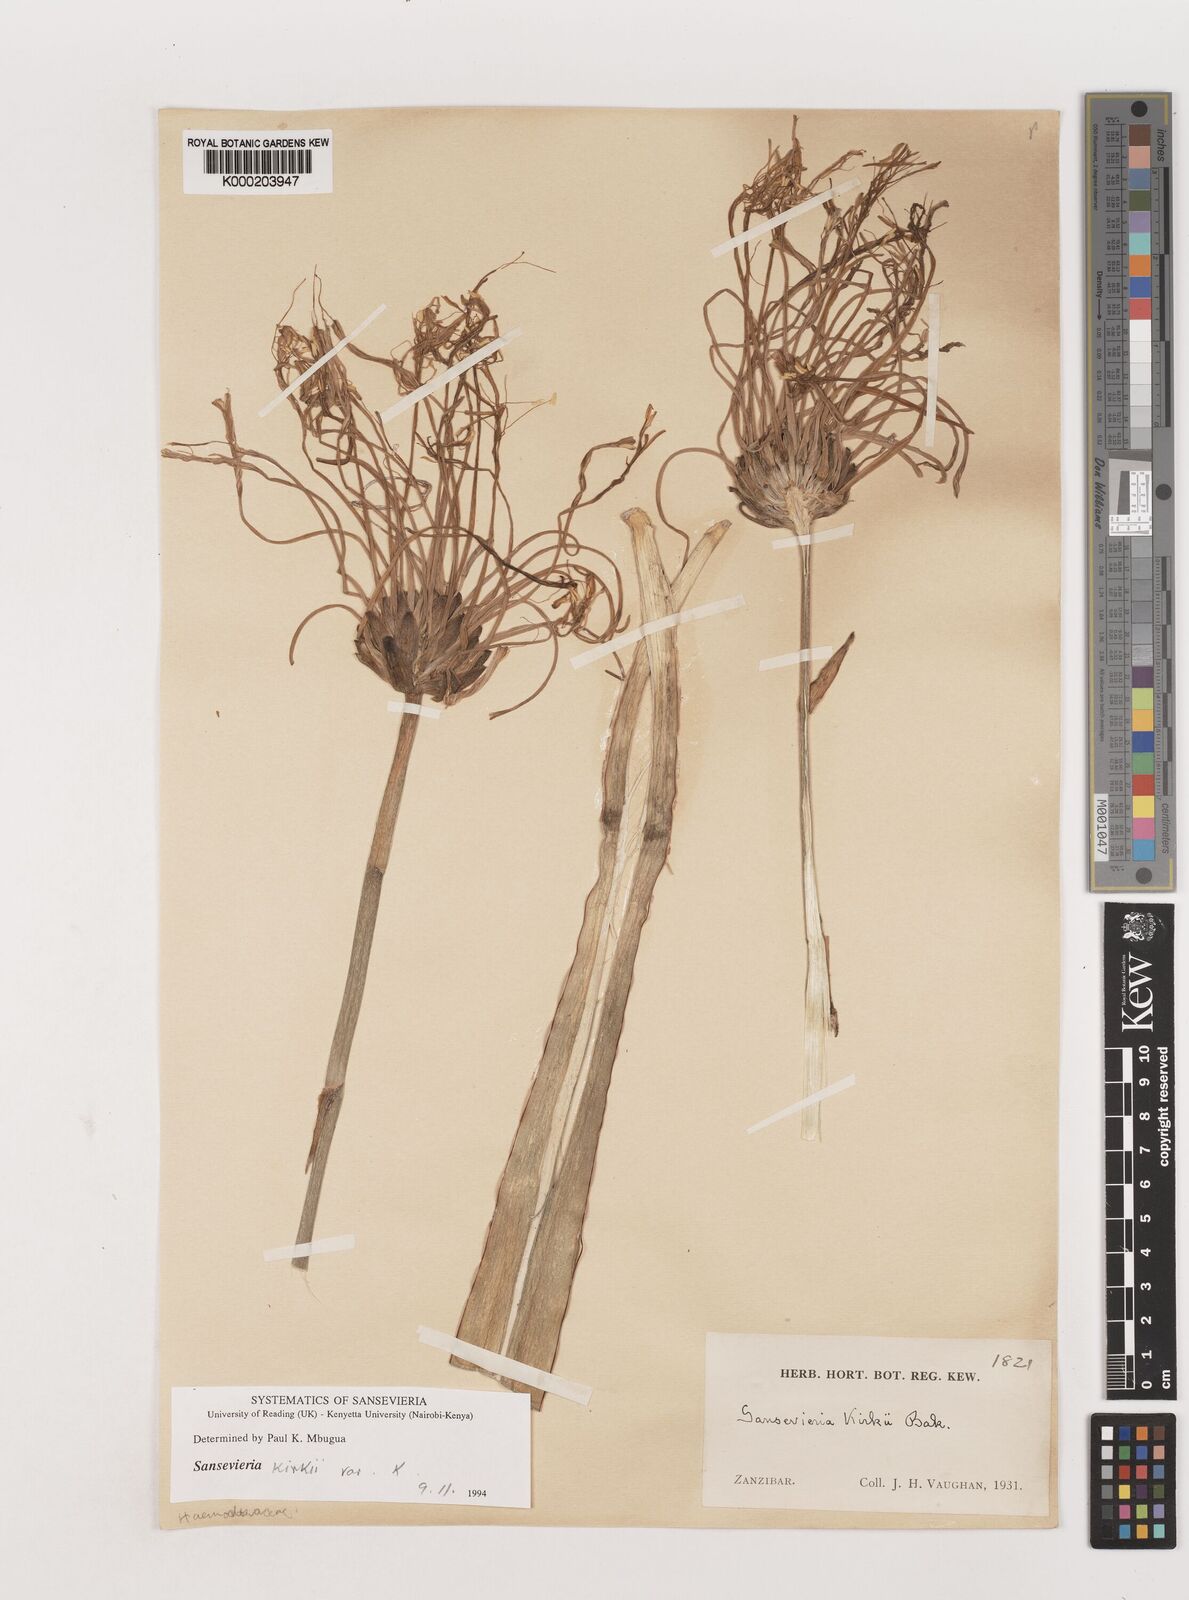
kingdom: Plantae
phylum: Tracheophyta
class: Liliopsida
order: Asparagales
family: Asparagaceae
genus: Dracaena
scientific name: Dracaena pethera
